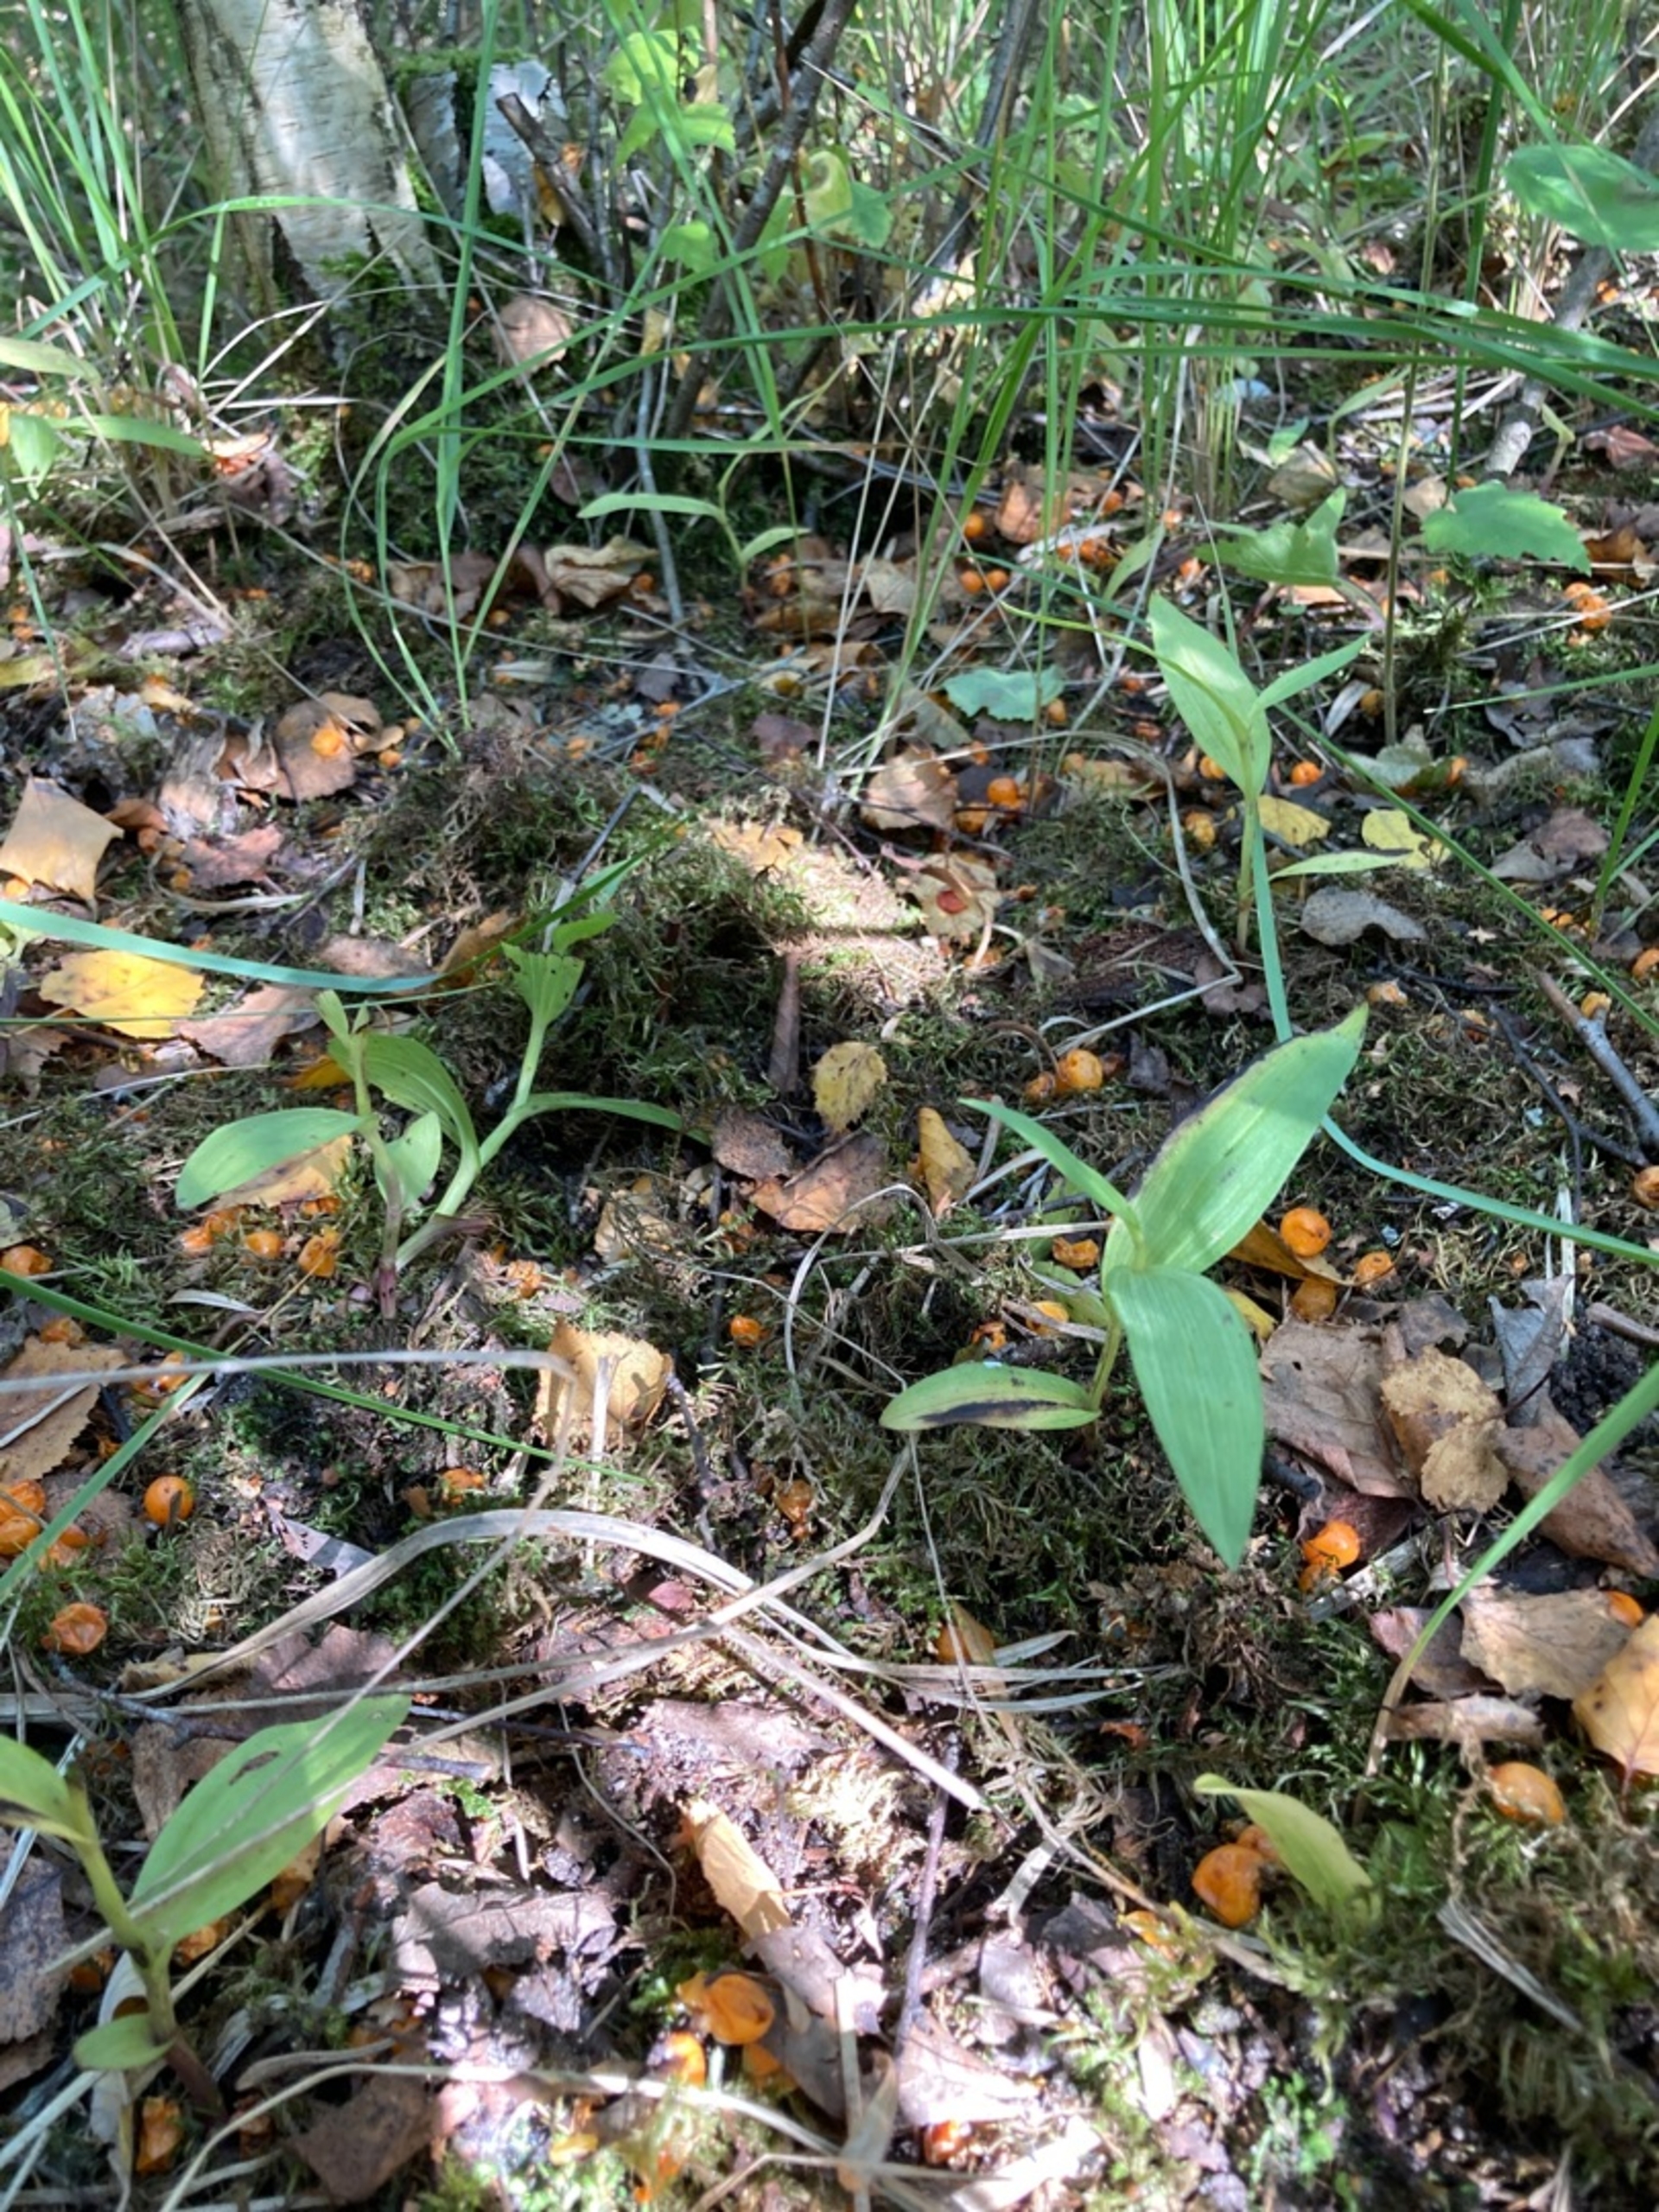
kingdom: Plantae
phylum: Tracheophyta
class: Liliopsida
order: Asparagales
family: Orchidaceae
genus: Epipactis
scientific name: Epipactis palustris
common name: Sump-hullæbe
